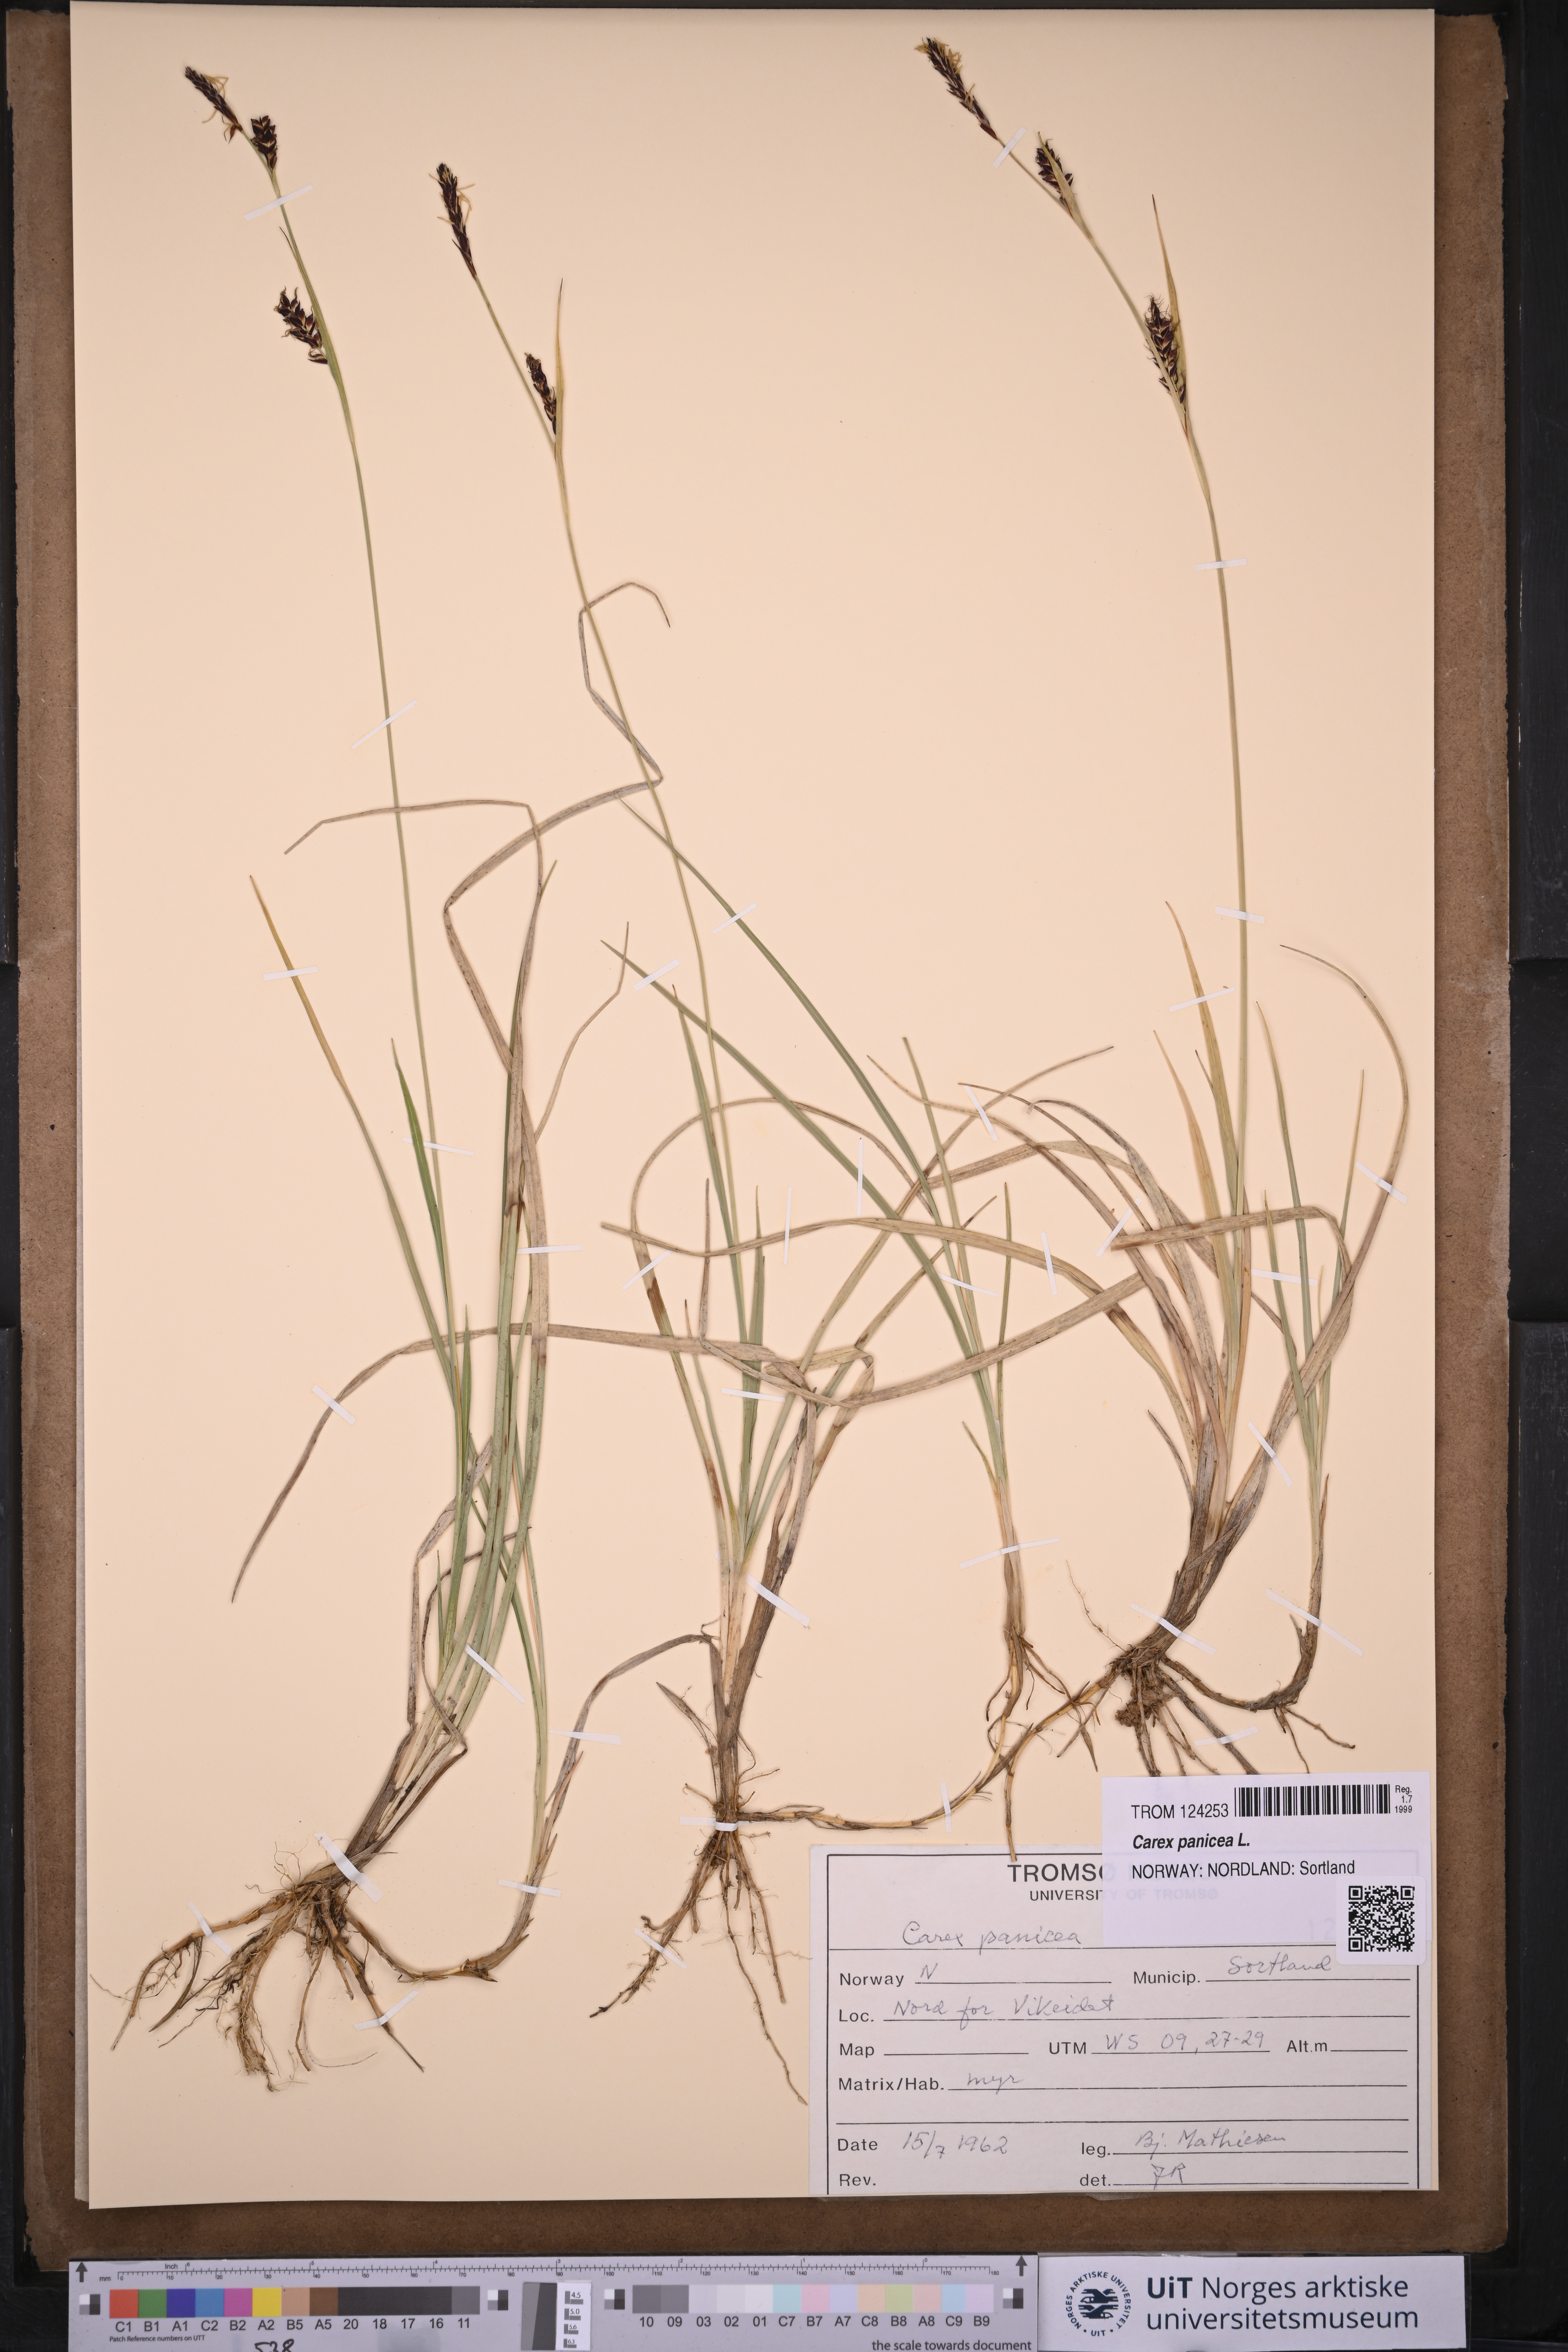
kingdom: Plantae
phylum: Tracheophyta
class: Liliopsida
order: Poales
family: Cyperaceae
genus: Carex
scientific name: Carex panicea
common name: Carnation sedge
